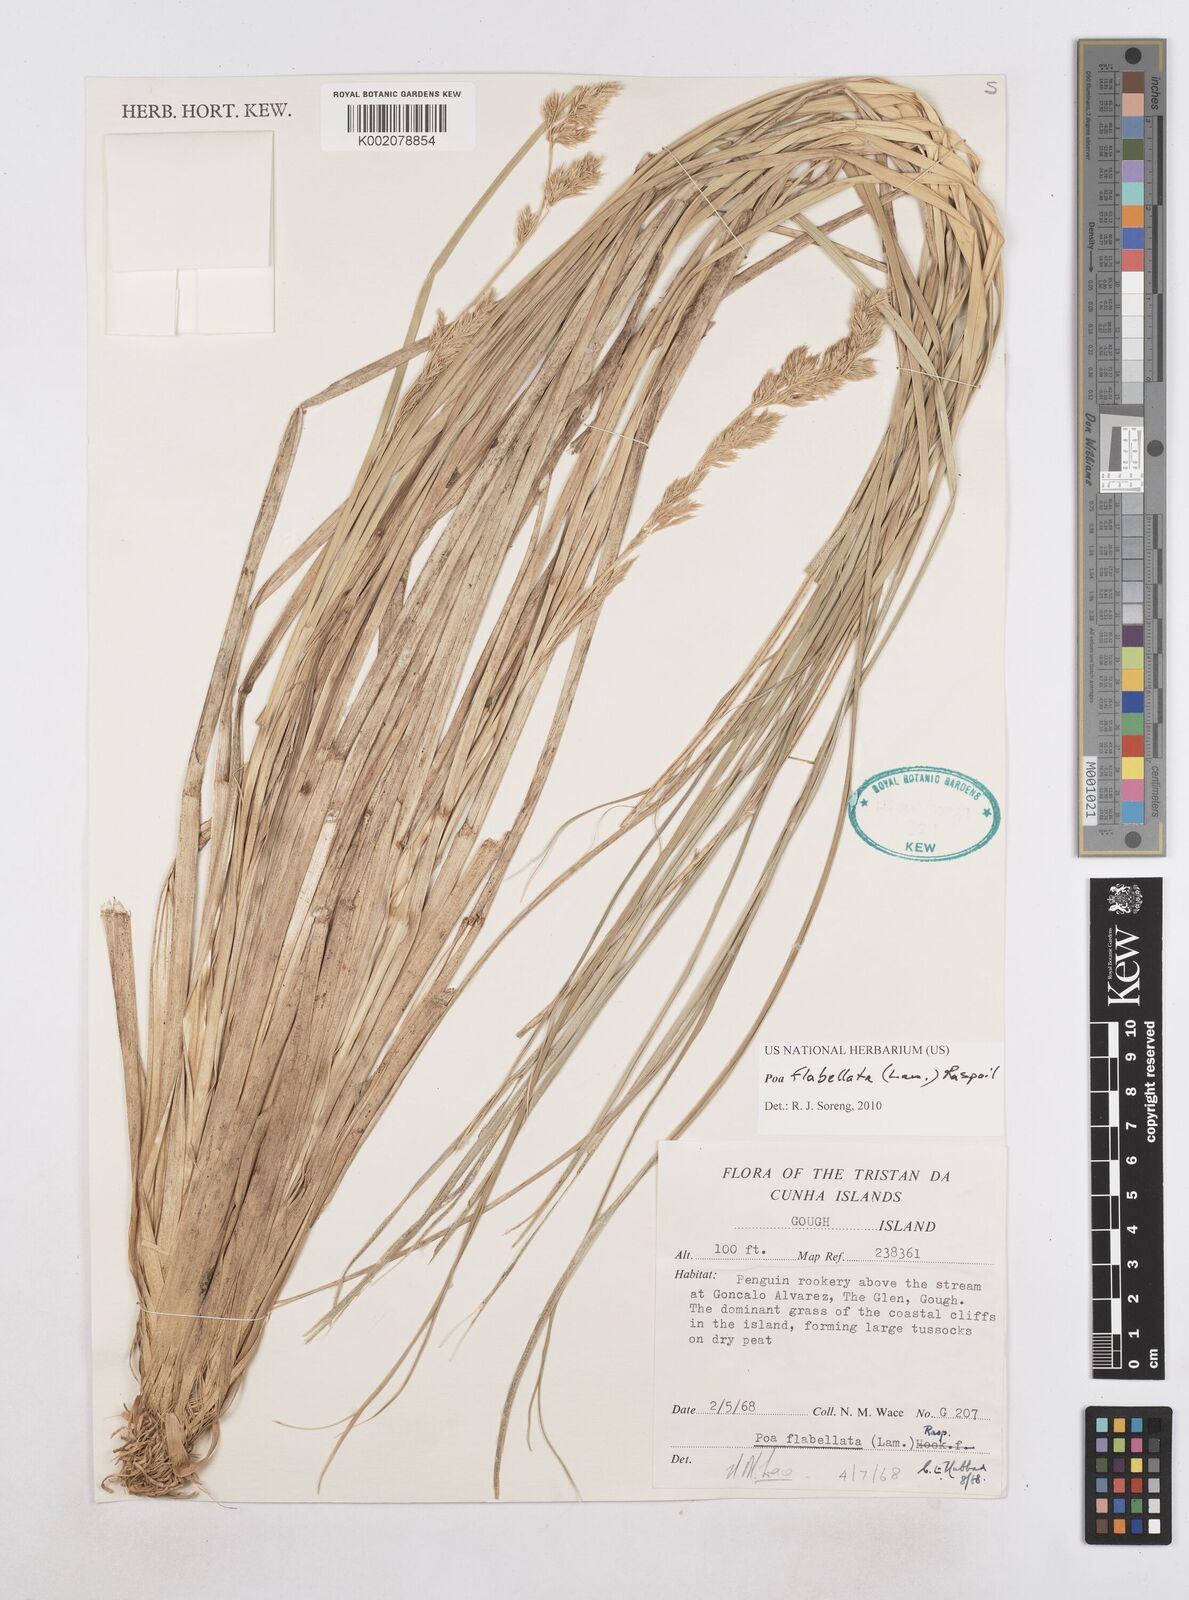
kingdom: Plantae
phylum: Tracheophyta
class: Liliopsida
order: Poales
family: Poaceae
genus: Poa
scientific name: Poa flabellata
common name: Tussac-grass
